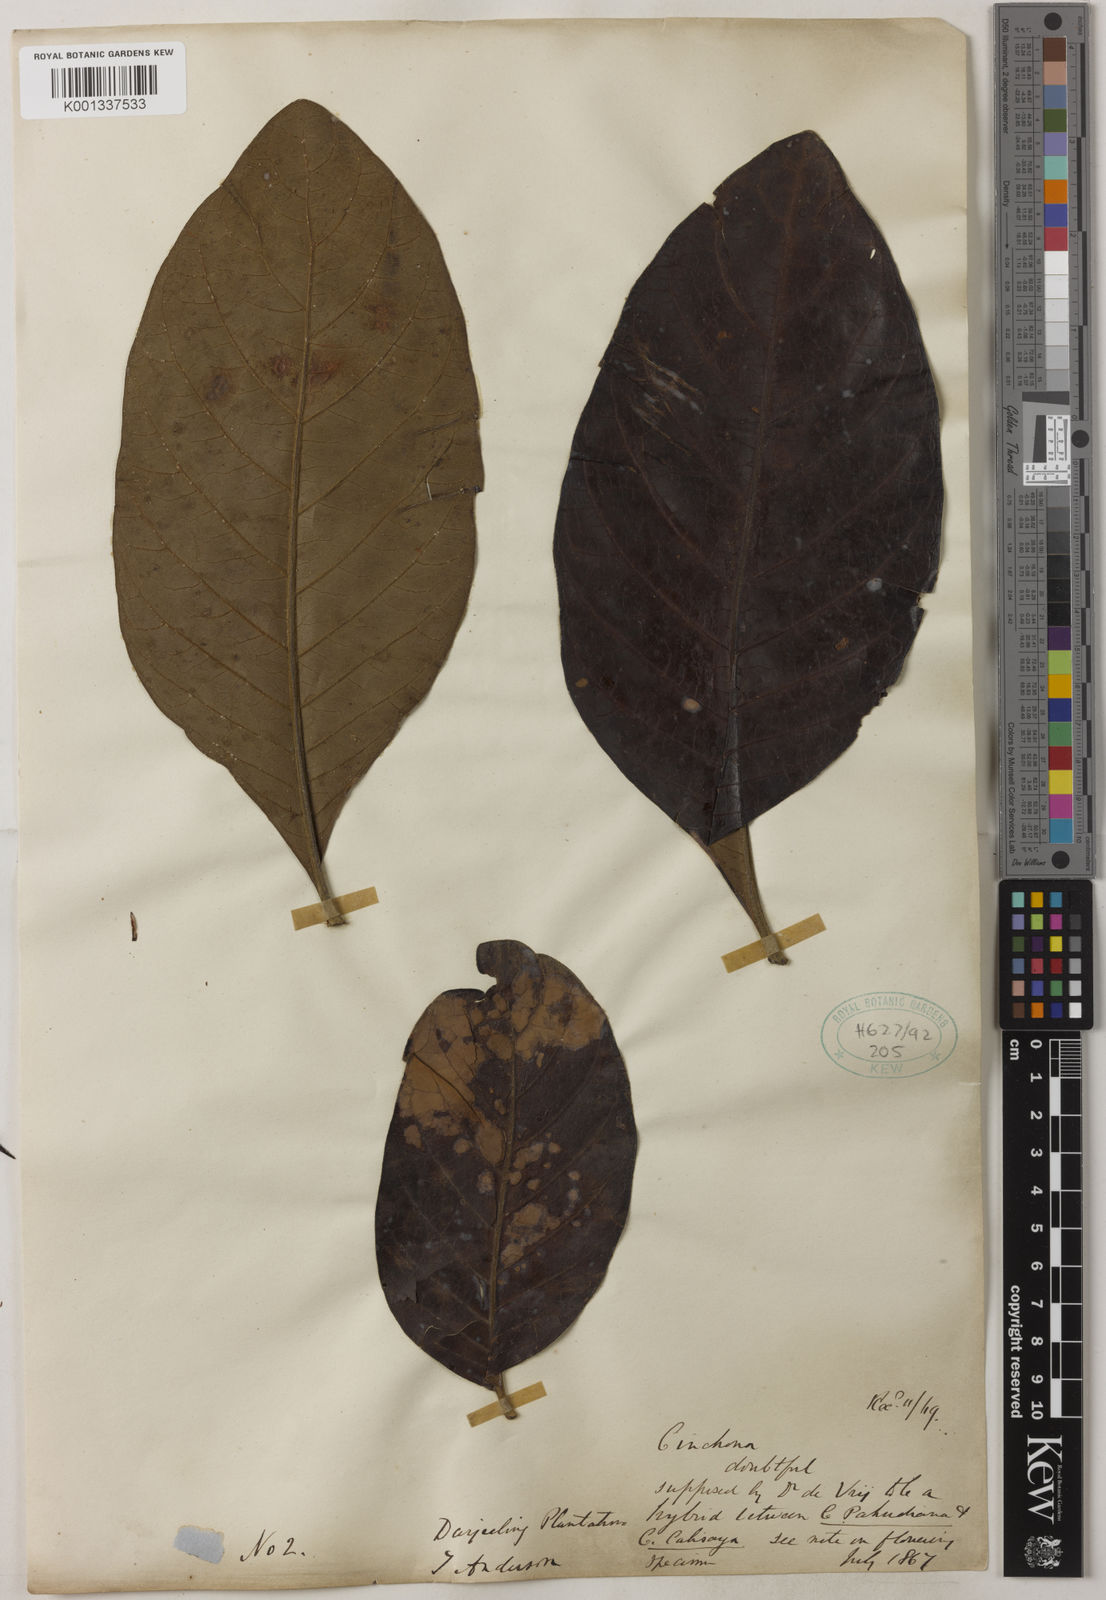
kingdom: Plantae
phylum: Tracheophyta
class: Magnoliopsida
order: Gentianales
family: Rubiaceae
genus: Cinchona
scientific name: Cinchona calisaya
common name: Ledgerbark
